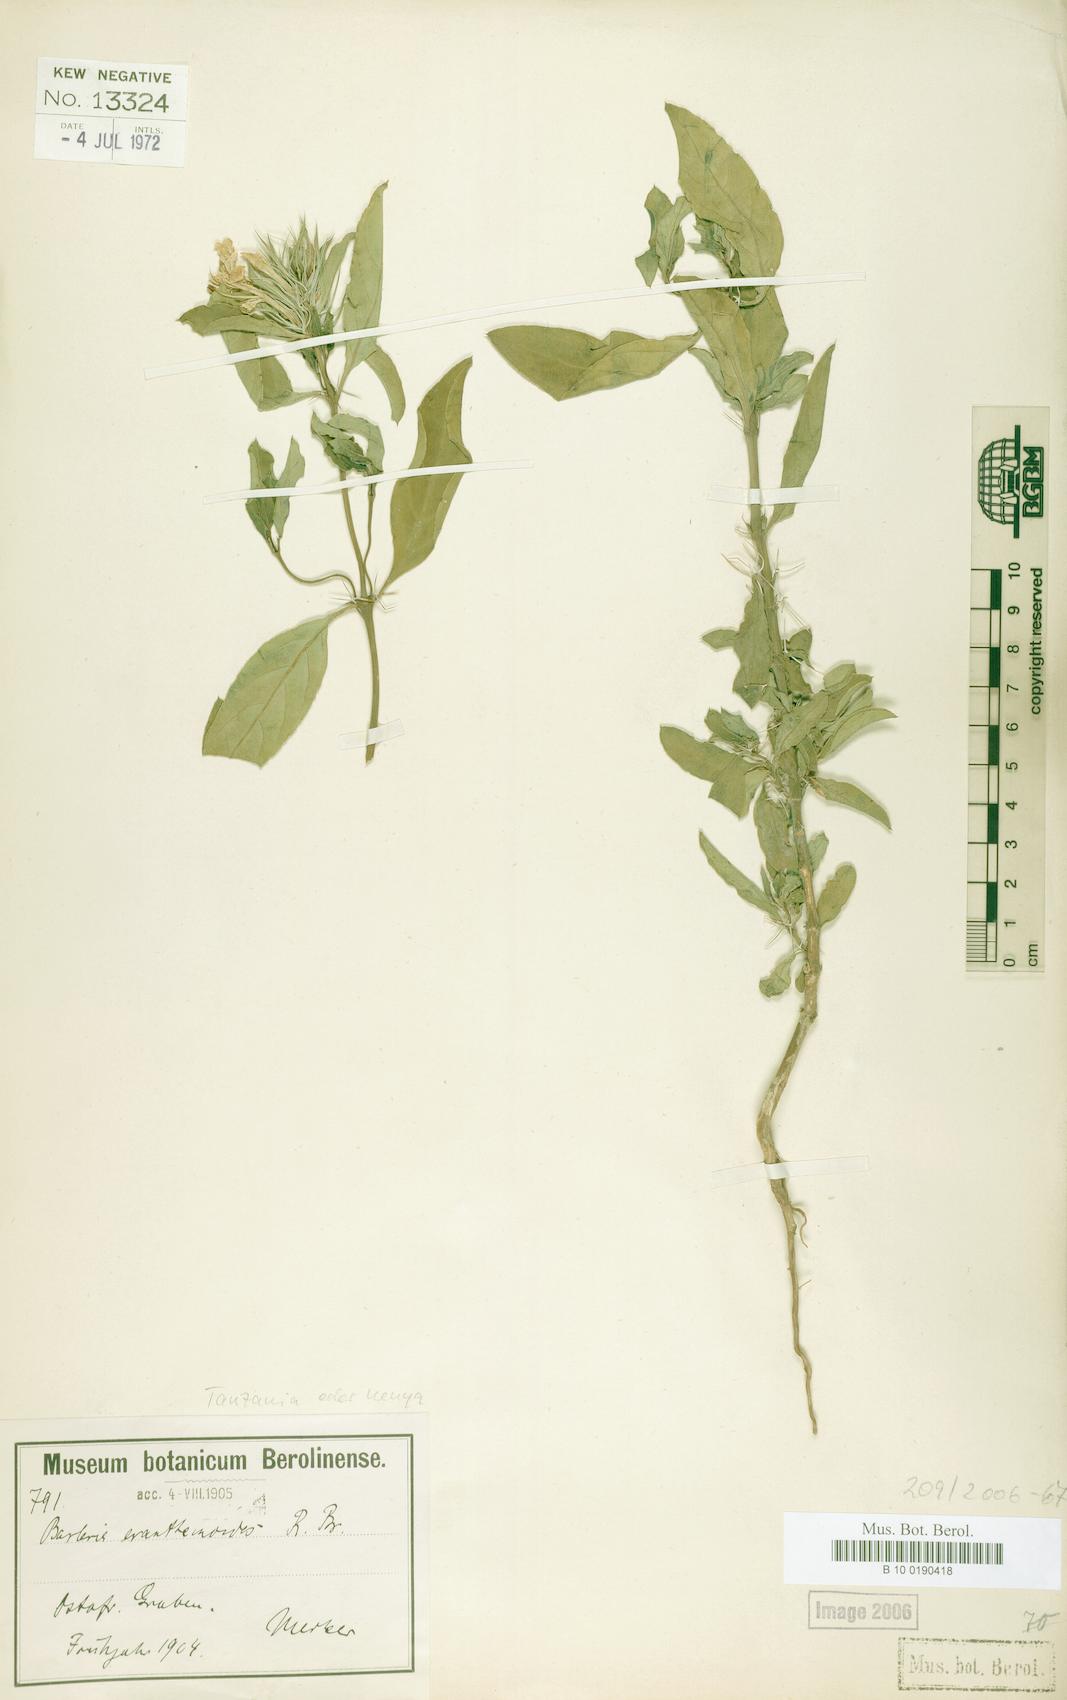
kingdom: Plantae
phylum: Tracheophyta
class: Magnoliopsida
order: Lamiales
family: Acanthaceae
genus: Barleria
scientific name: Barleria polhillii
